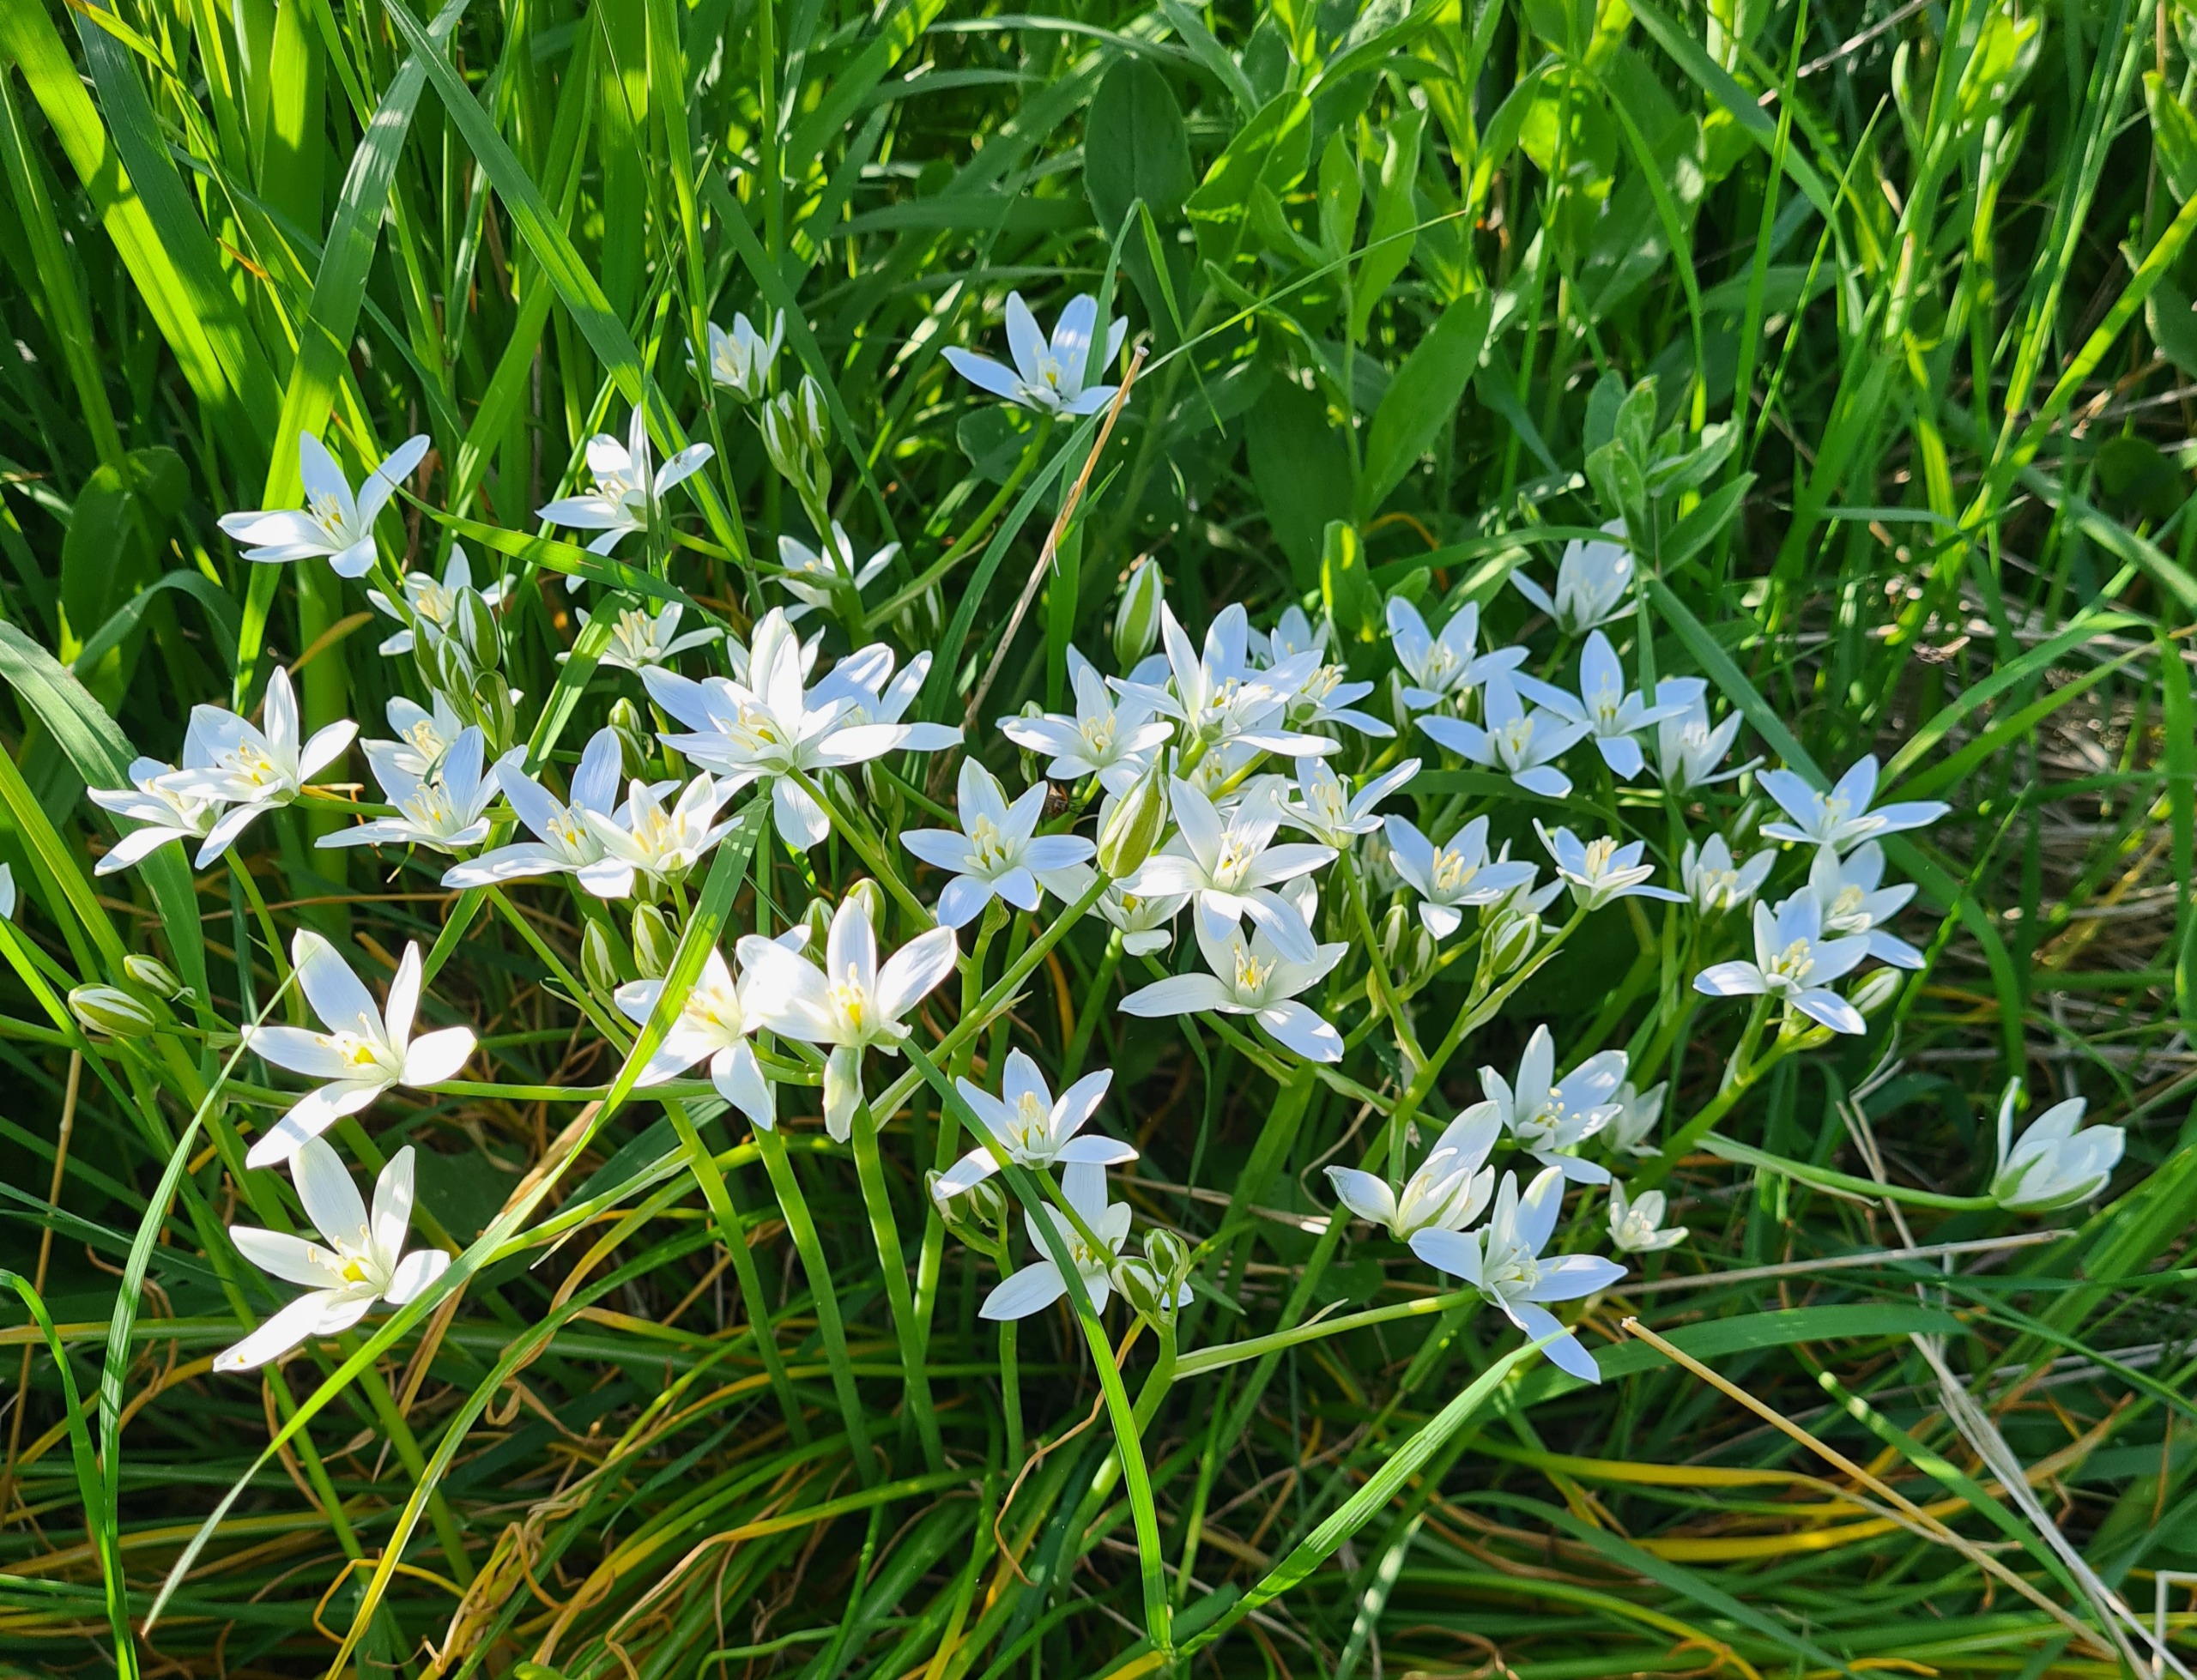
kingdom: Plantae
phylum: Tracheophyta
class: Liliopsida
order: Asparagales
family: Asparagaceae
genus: Ornithogalum
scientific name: Ornithogalum umbellatum
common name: Kost-fuglemælk
